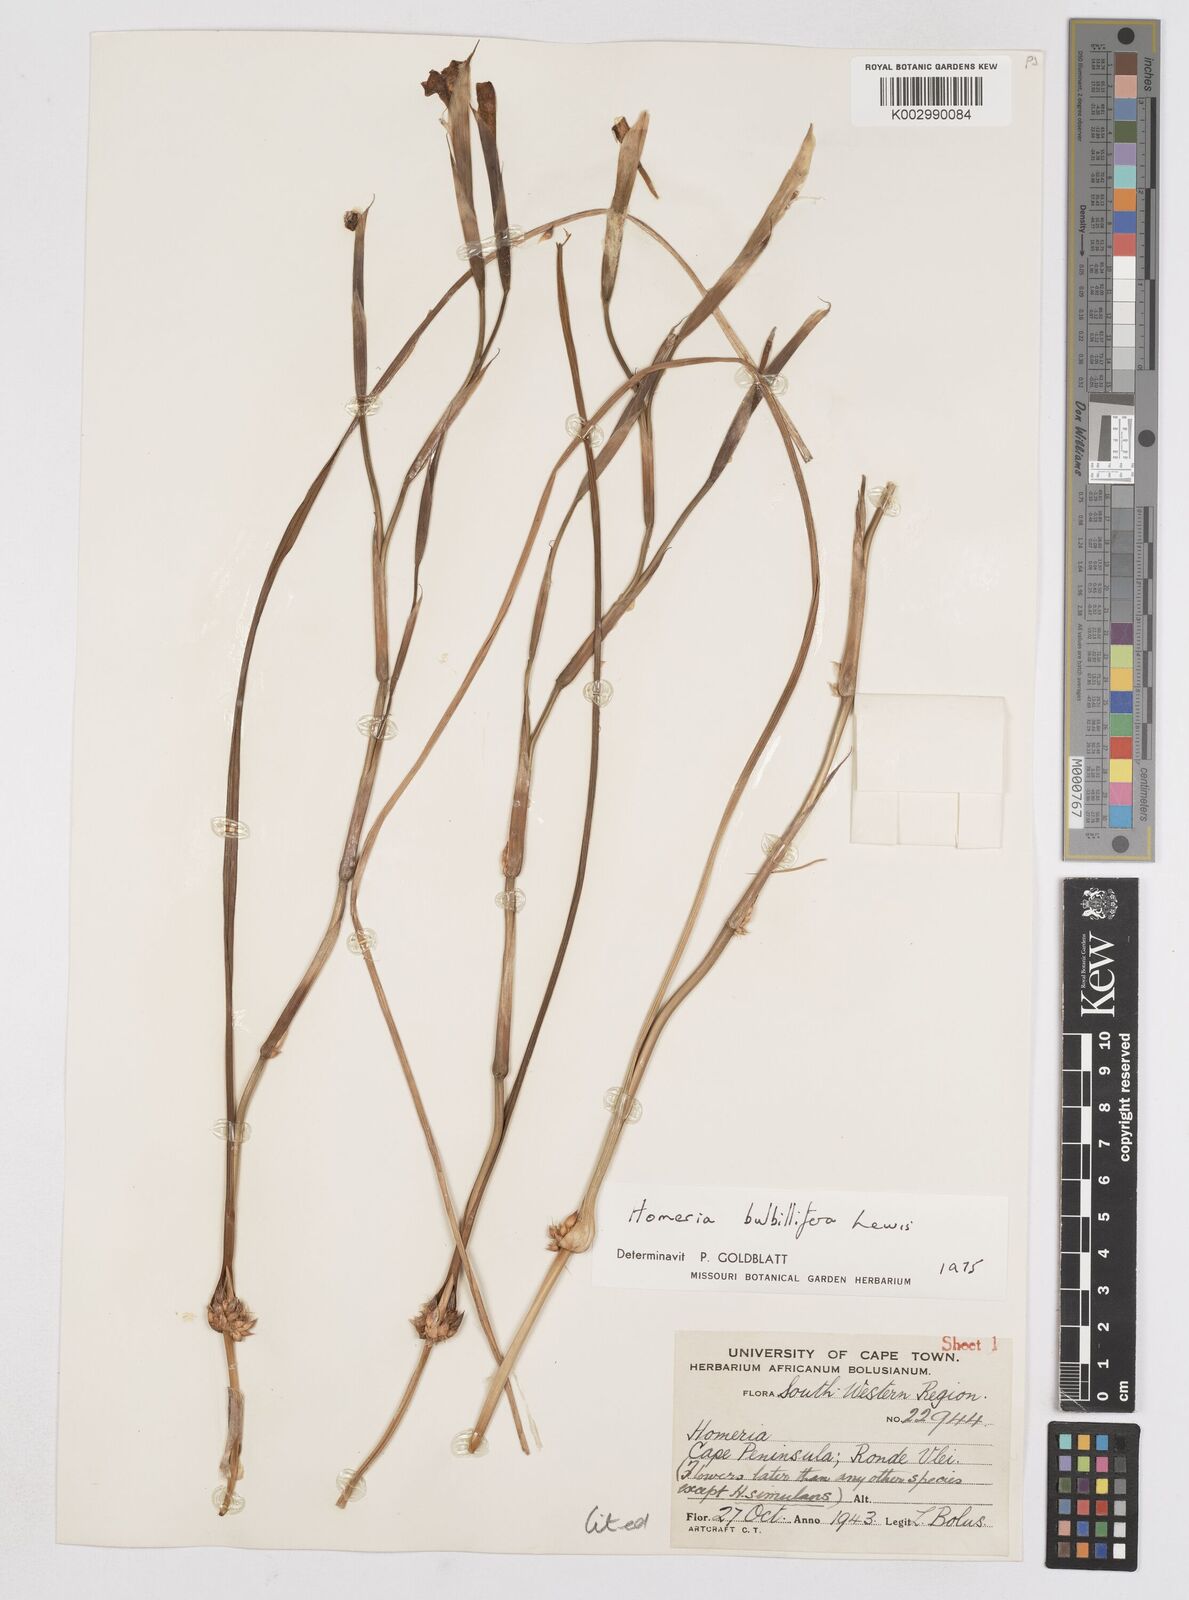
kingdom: Plantae
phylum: Tracheophyta
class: Liliopsida
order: Asparagales
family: Iridaceae
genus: Moraea
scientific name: Moraea bulbillifera
